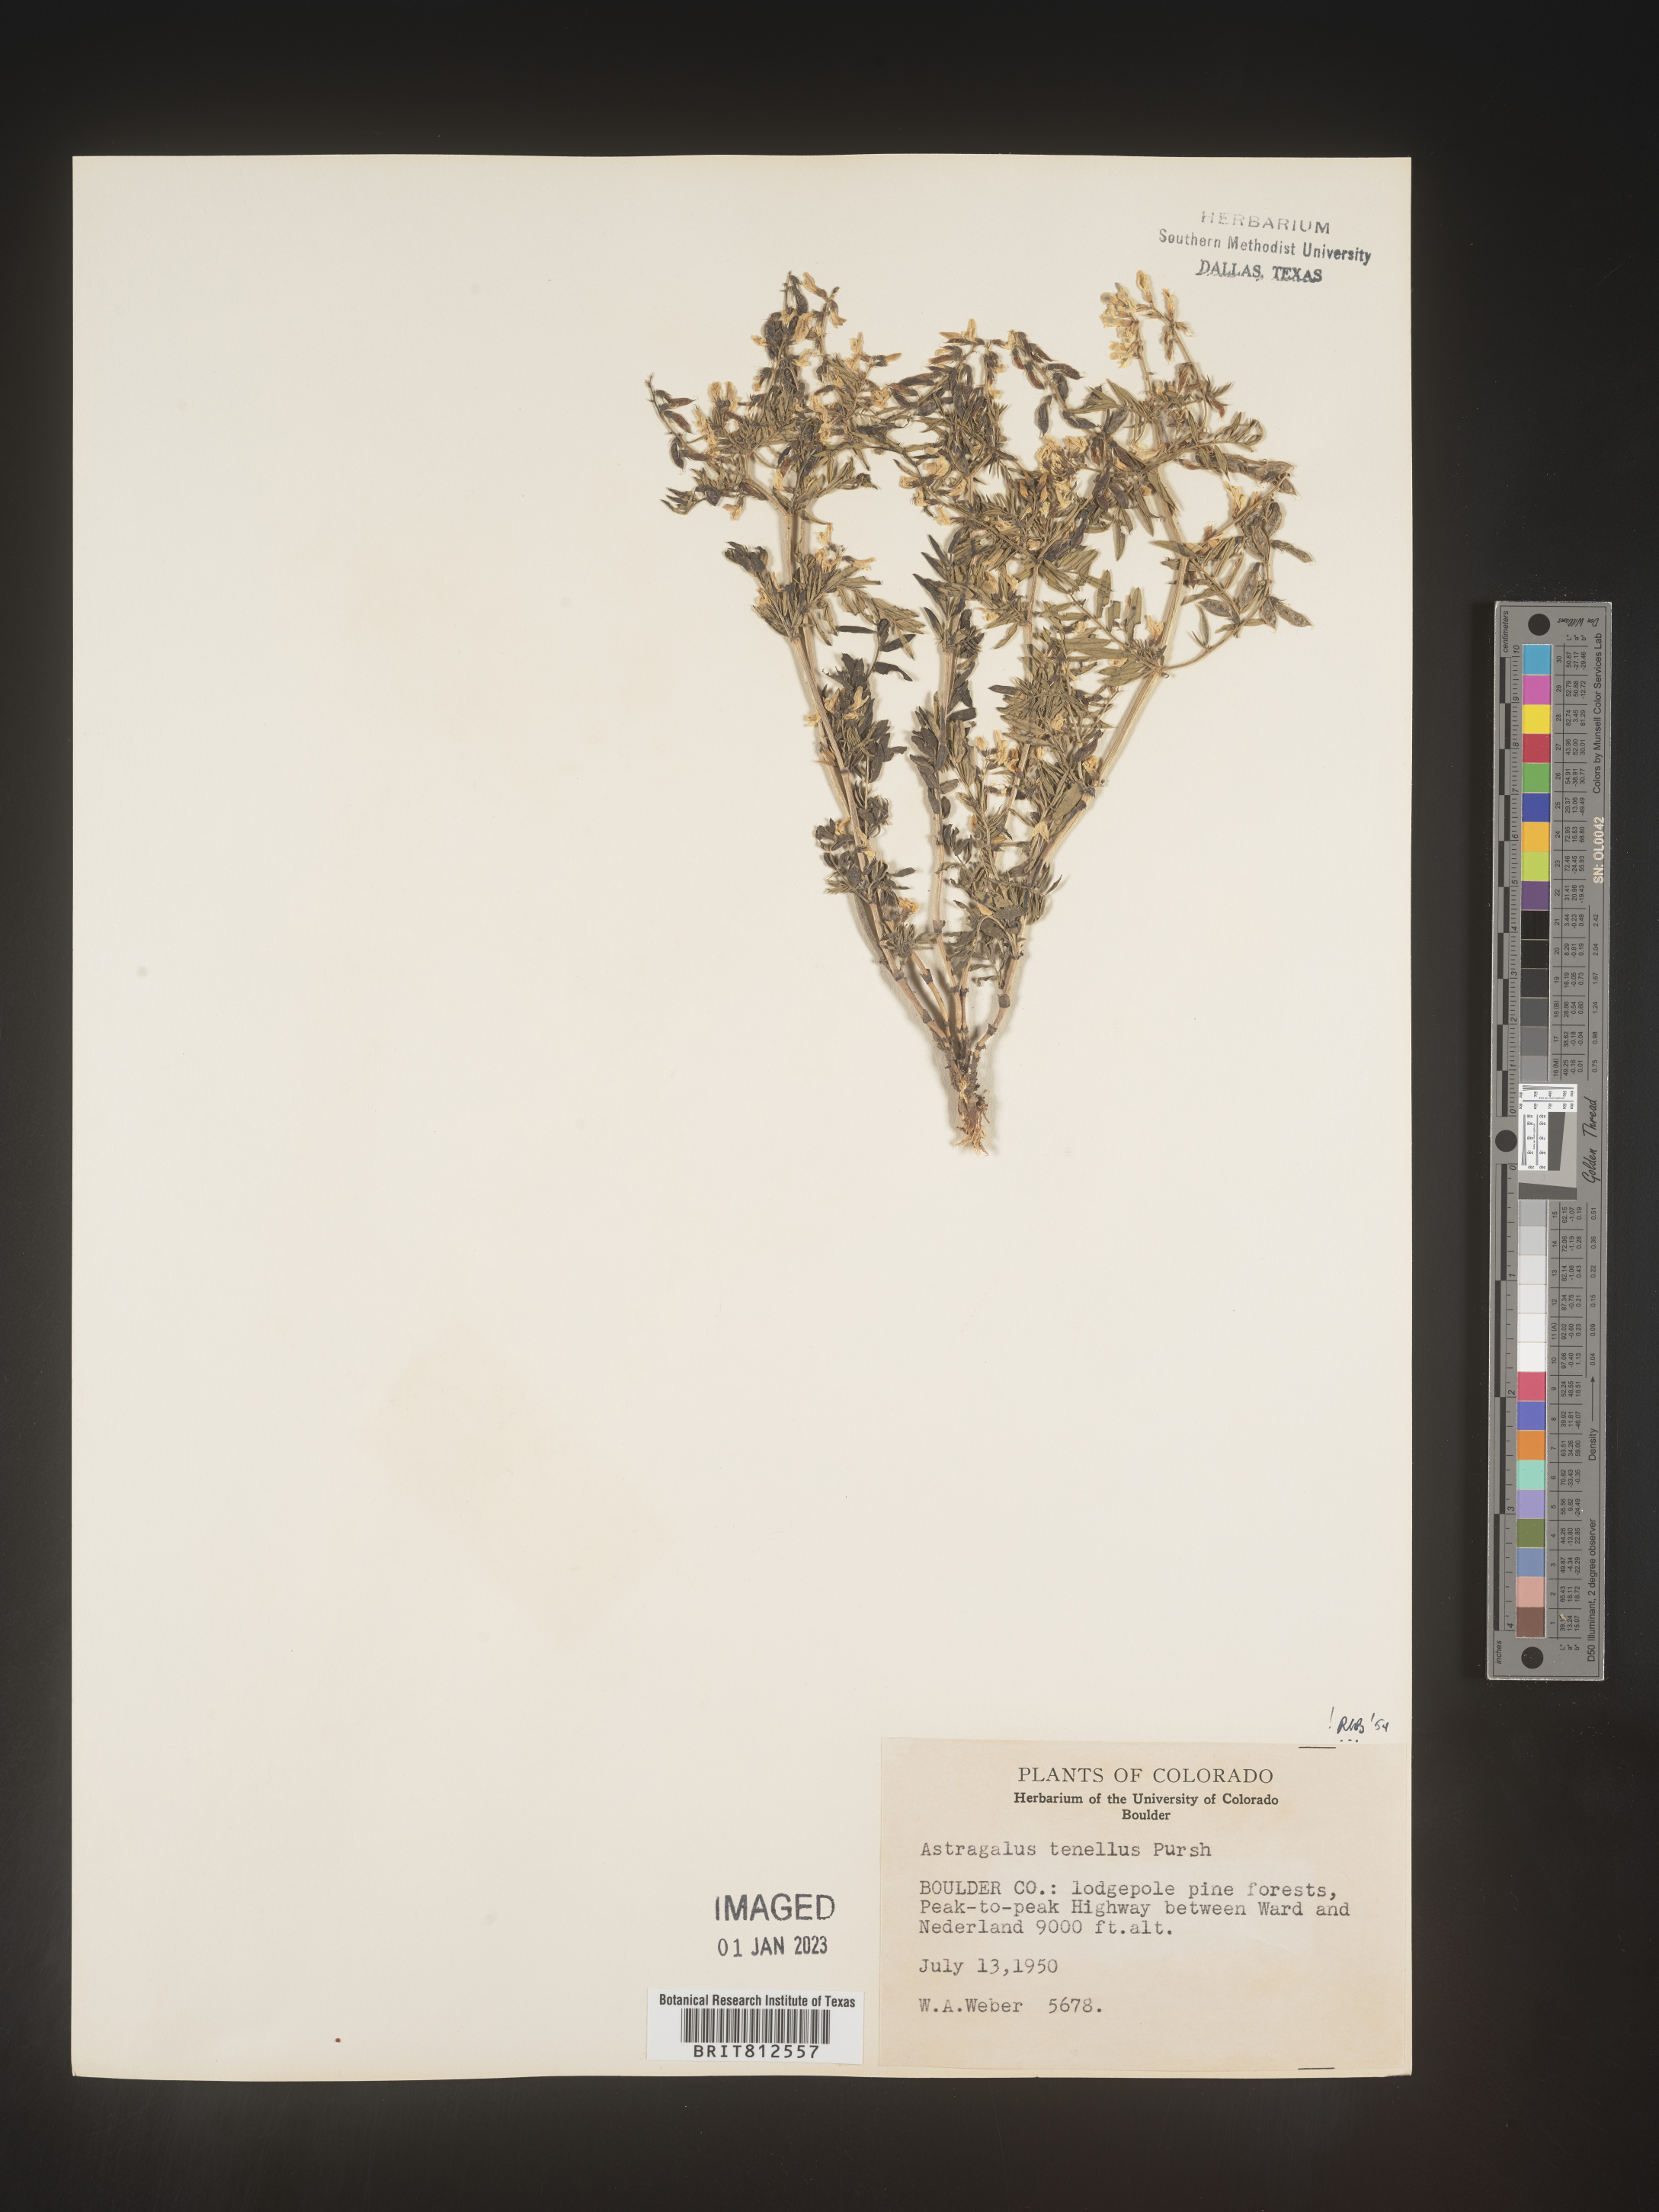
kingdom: Plantae
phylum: Tracheophyta
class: Magnoliopsida
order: Fabales
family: Fabaceae
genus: Astragalus
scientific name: Astragalus
